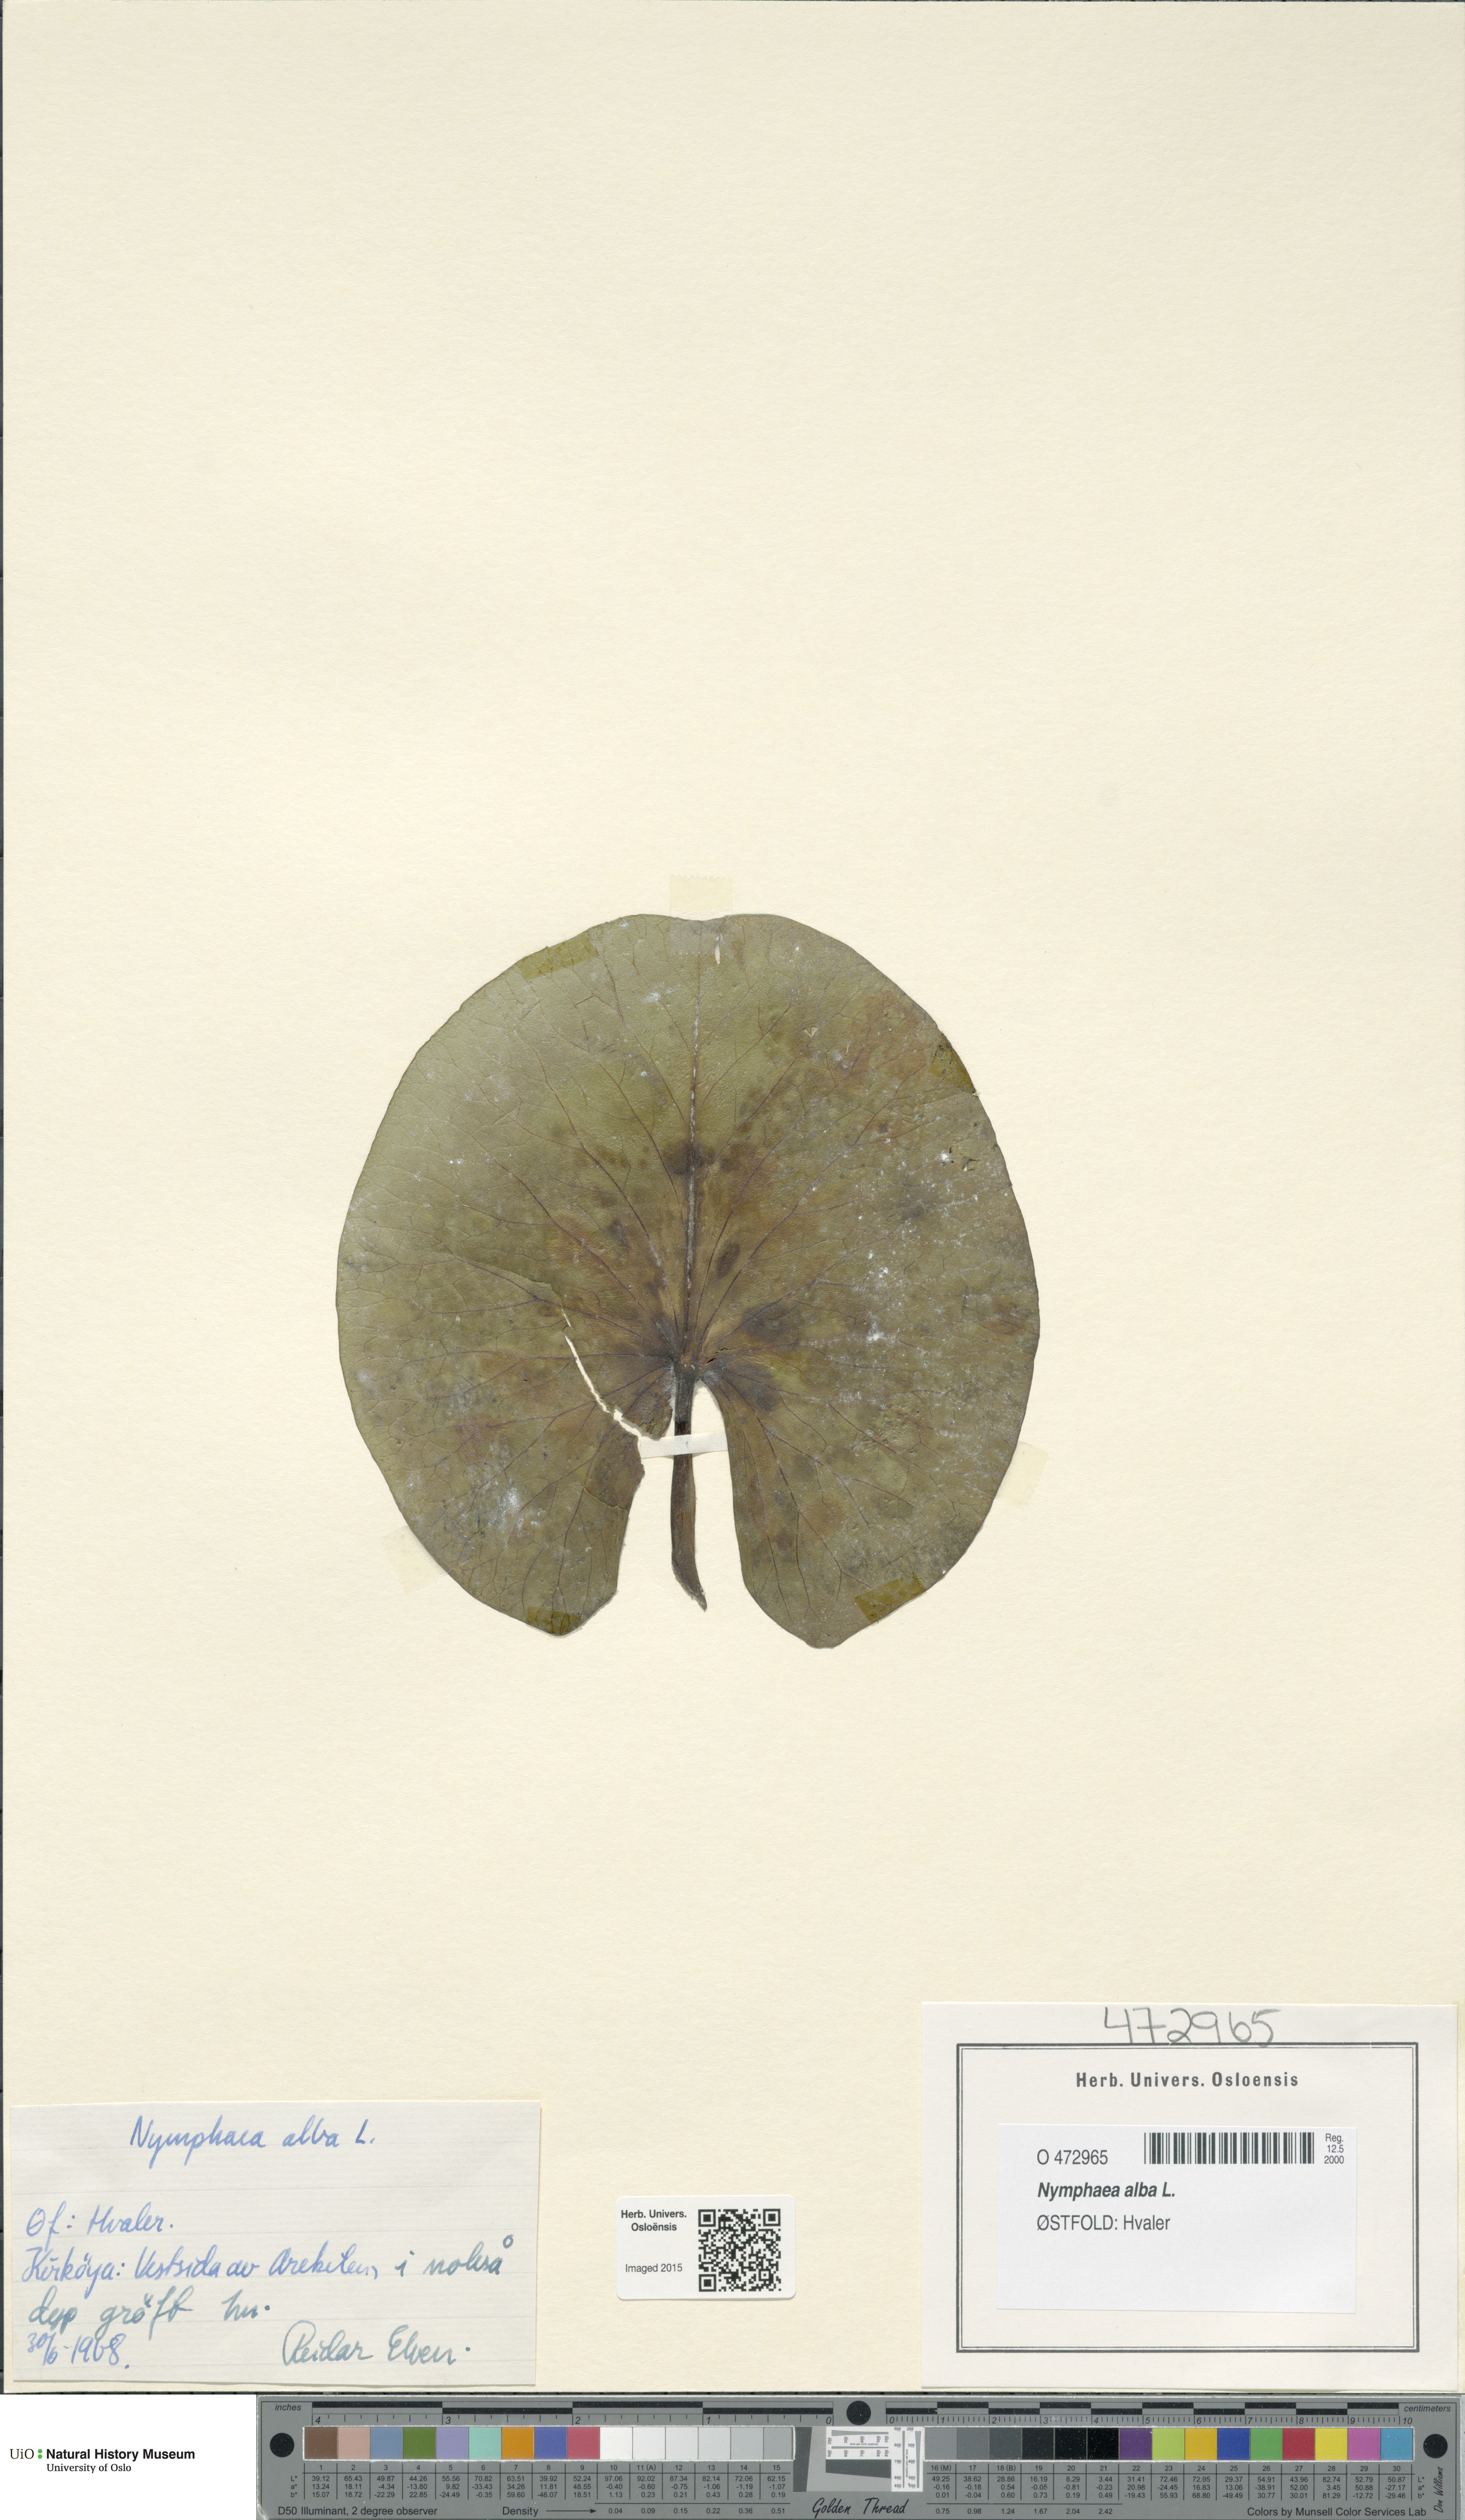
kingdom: Plantae
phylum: Tracheophyta
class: Magnoliopsida
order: Nymphaeales
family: Nymphaeaceae
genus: Nymphaea
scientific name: Nymphaea alba
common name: White water-lily
